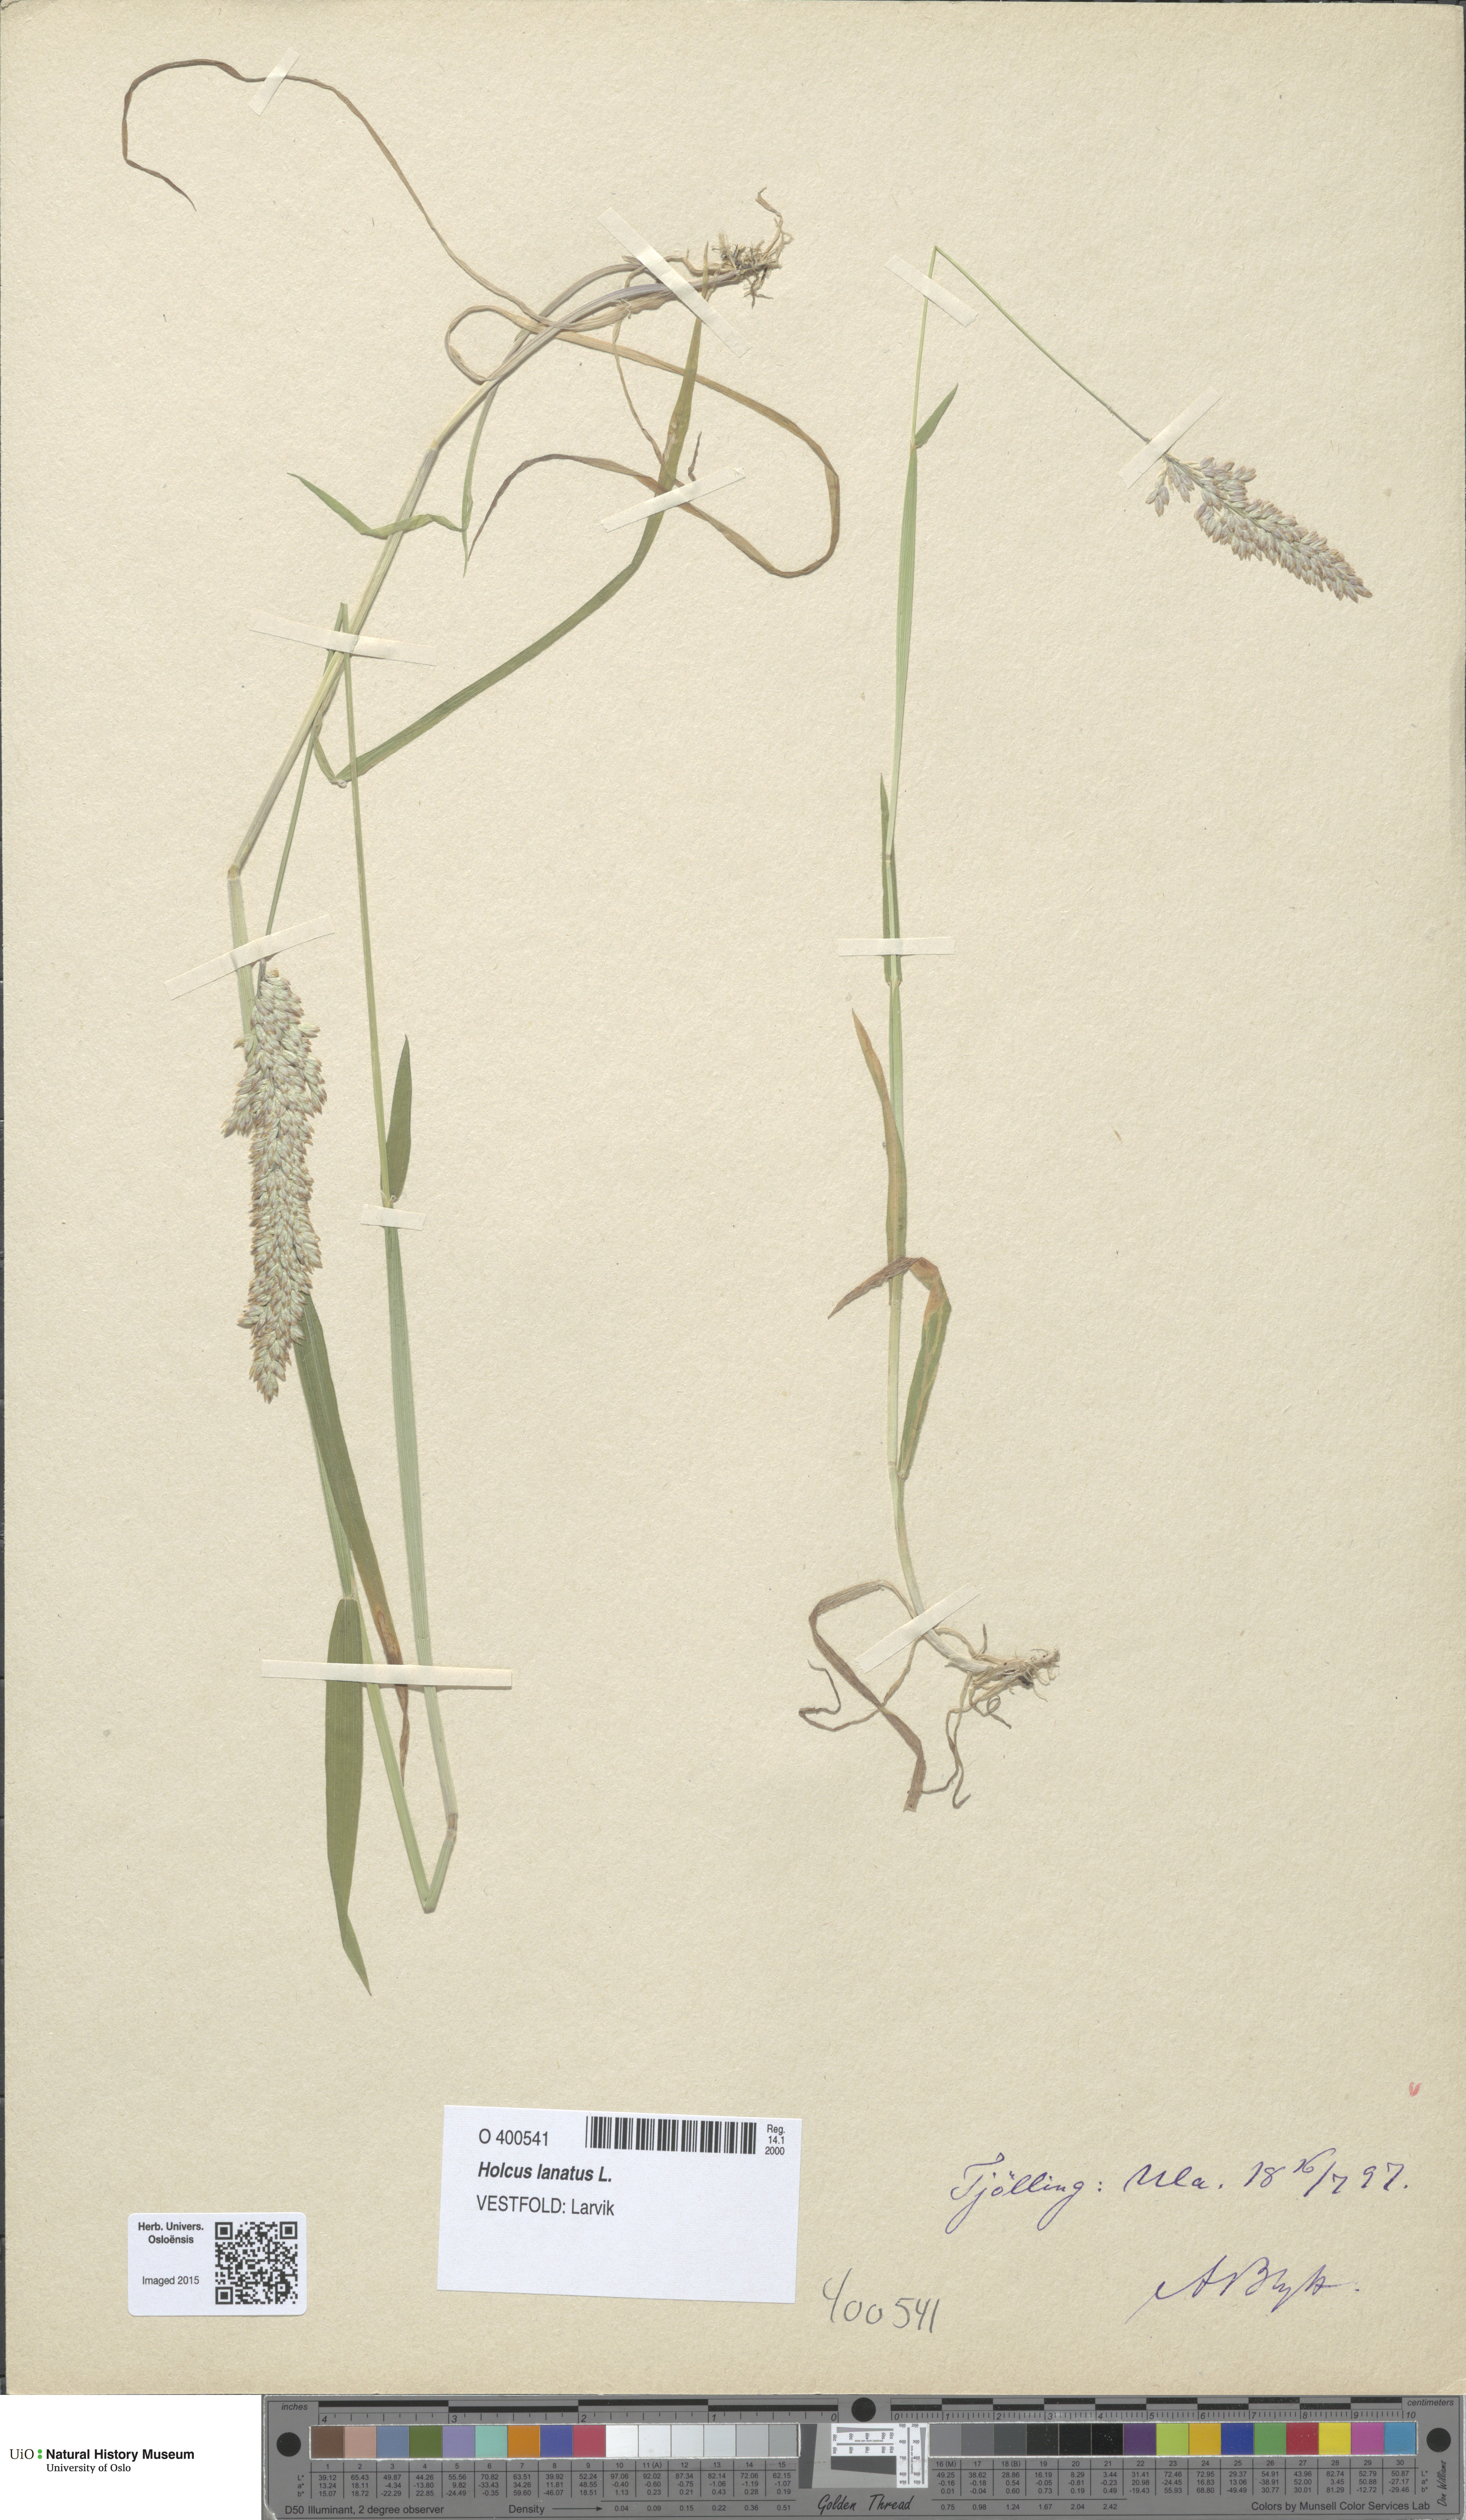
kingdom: Plantae
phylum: Tracheophyta
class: Liliopsida
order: Poales
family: Poaceae
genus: Holcus
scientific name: Holcus lanatus
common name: Yorkshire-fog
